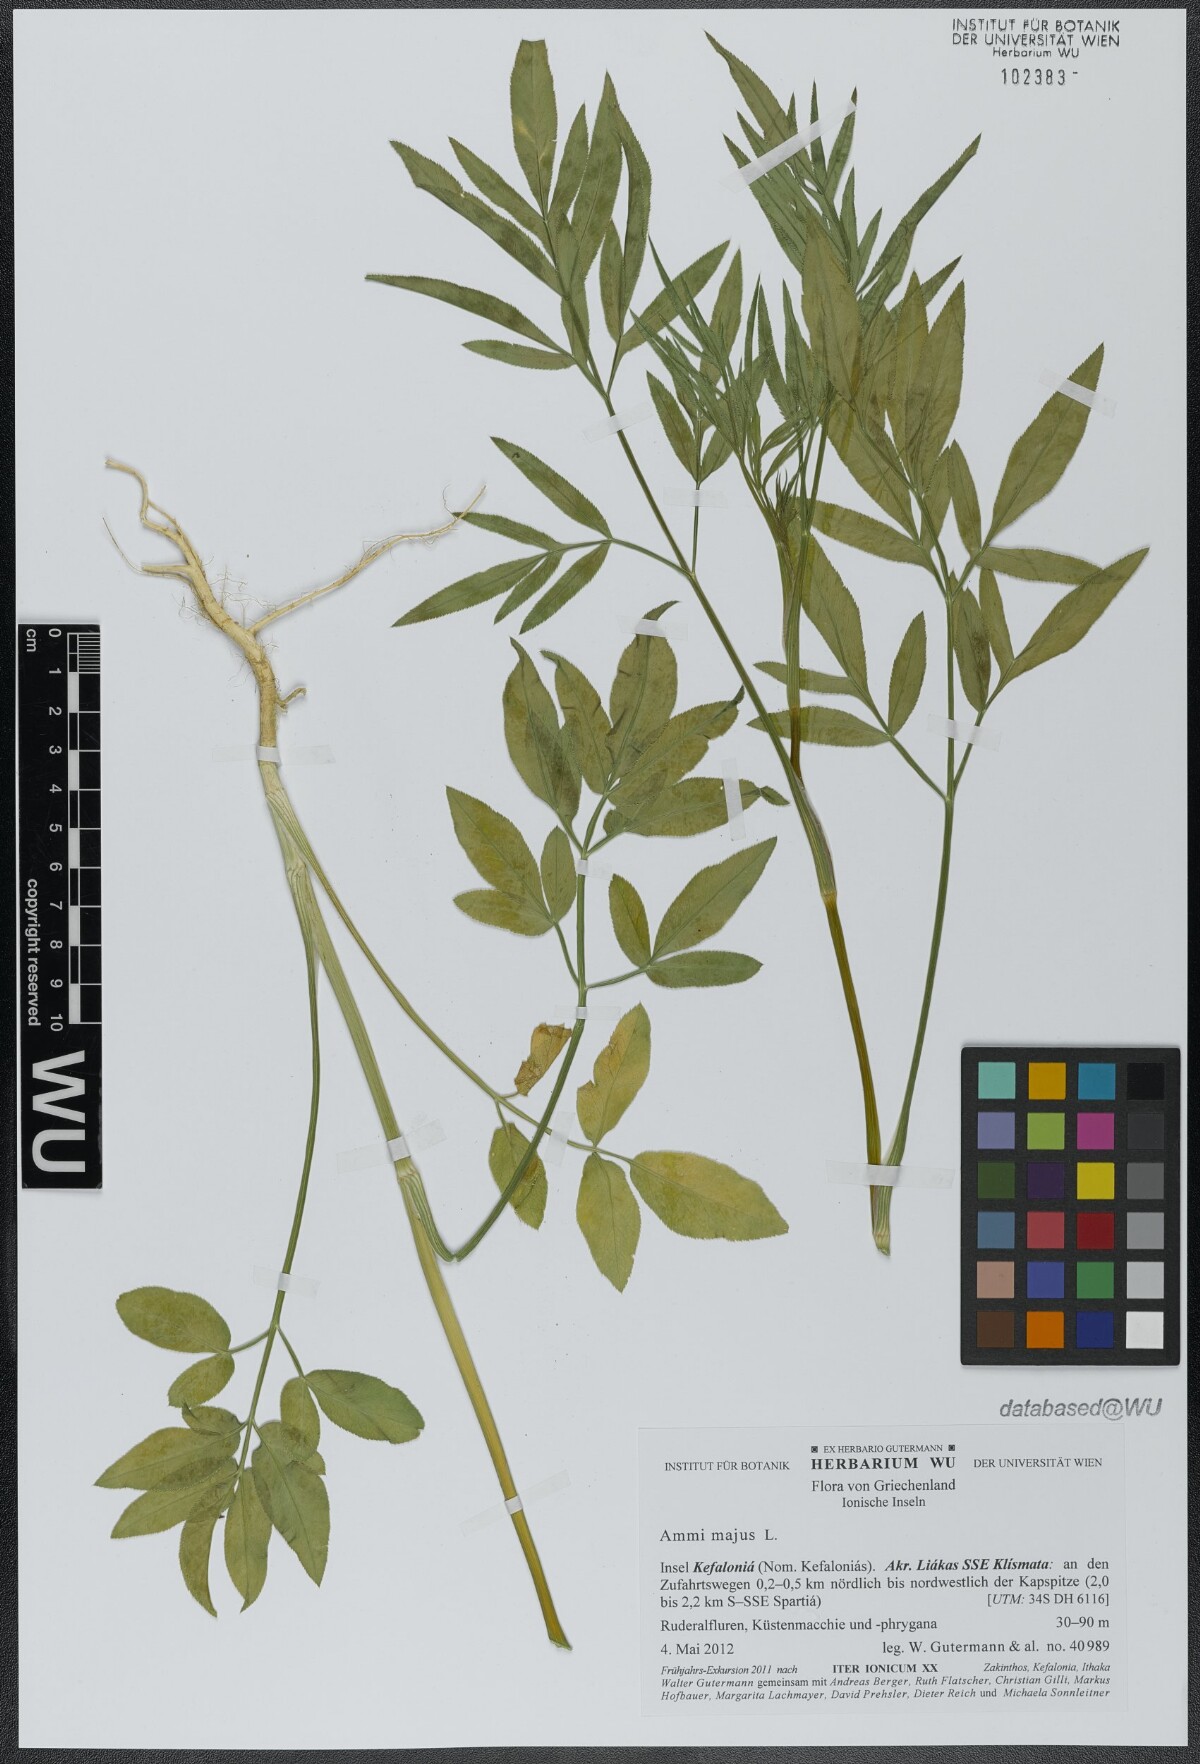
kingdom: Plantae
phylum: Tracheophyta
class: Magnoliopsida
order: Apiales
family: Apiaceae
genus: Ammi
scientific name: Ammi majus
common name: Bullwort
